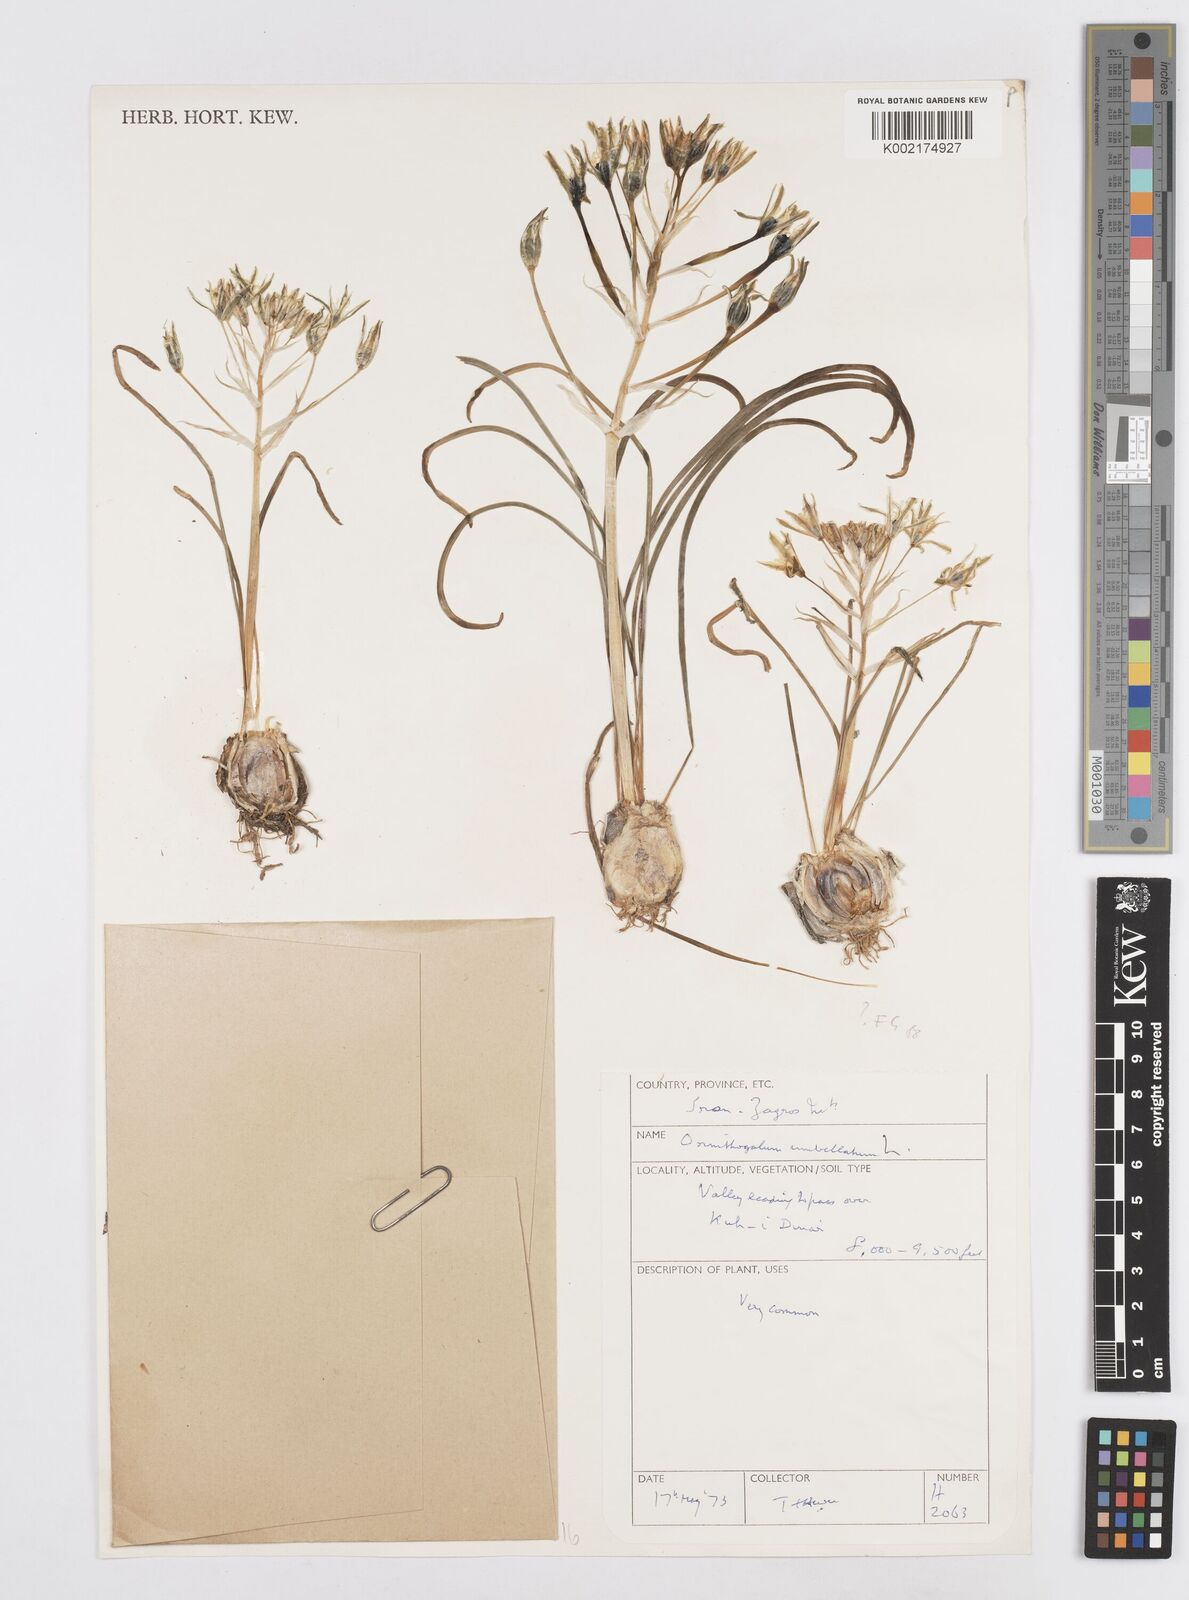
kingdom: Plantae
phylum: Tracheophyta
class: Liliopsida
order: Asparagales
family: Asparagaceae
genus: Ornithogalum
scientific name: Ornithogalum umbellatum
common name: Garden star-of-bethlehem
